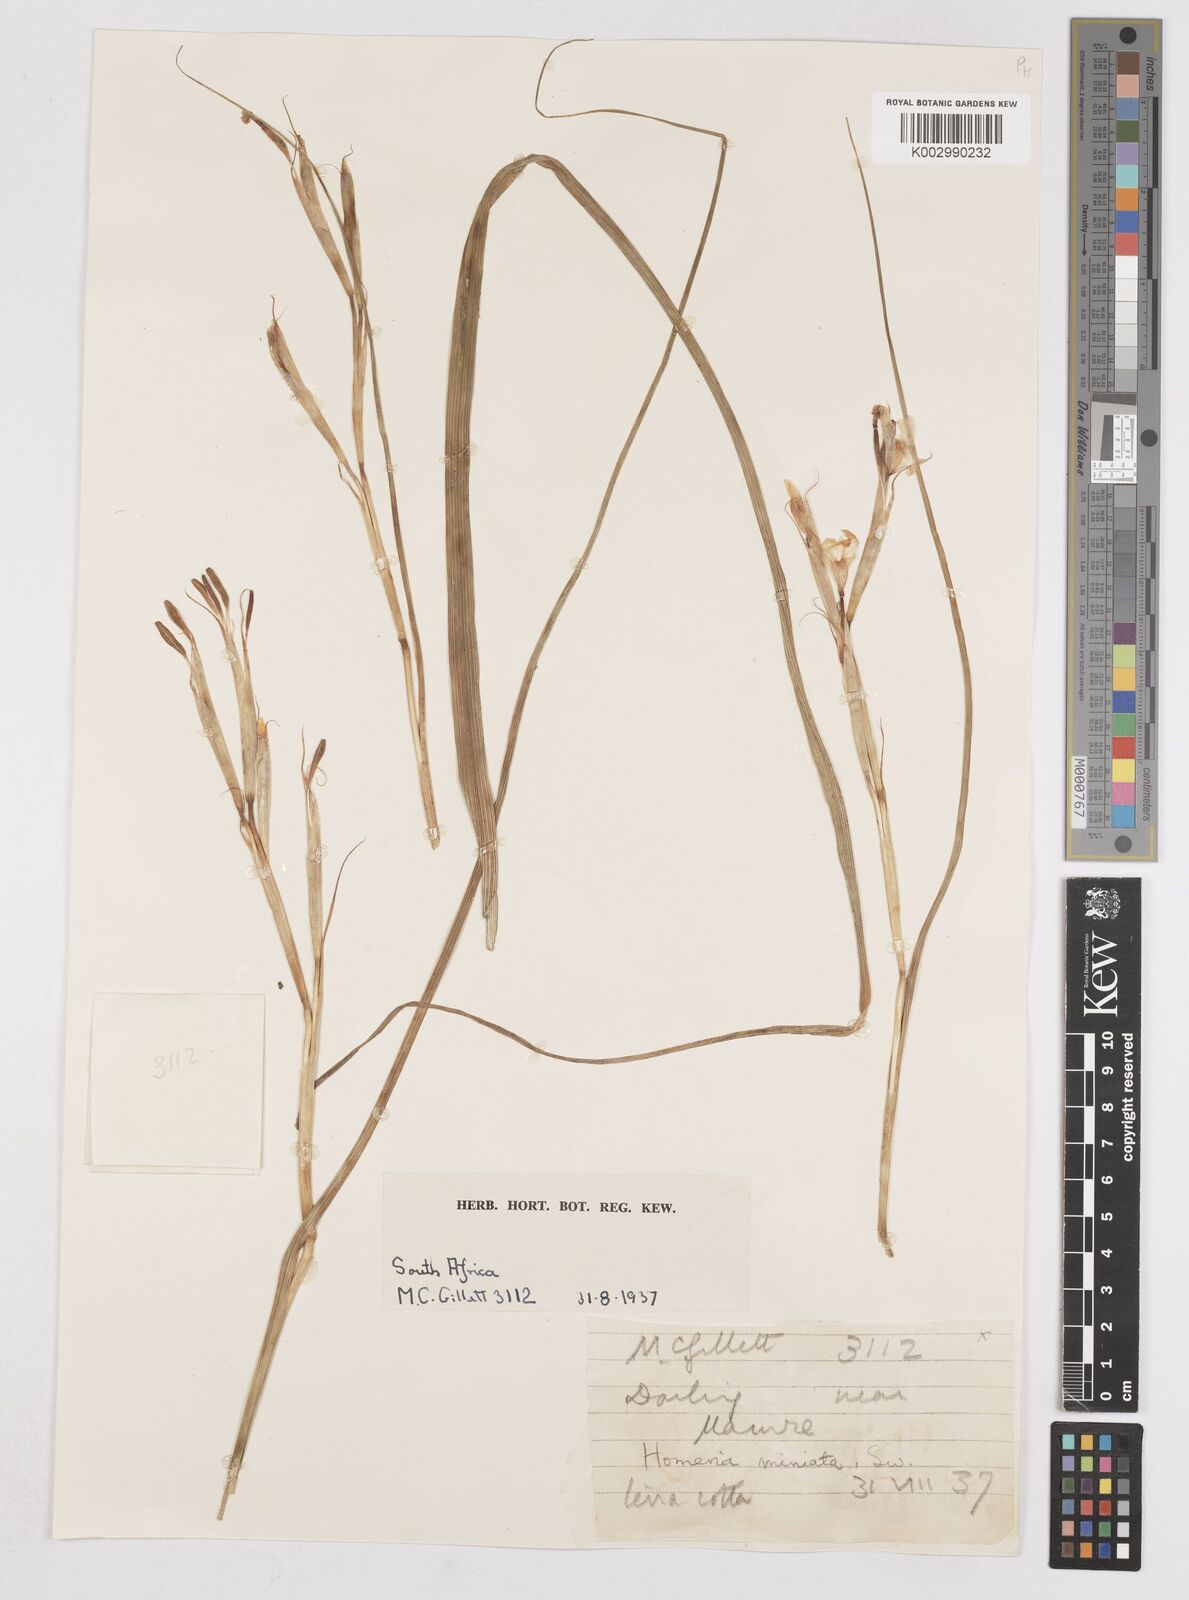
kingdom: Plantae
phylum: Tracheophyta
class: Liliopsida
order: Asparagales
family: Iridaceae
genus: Moraea
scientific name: Moraea miniata
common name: Two-leaf cape-tulip
